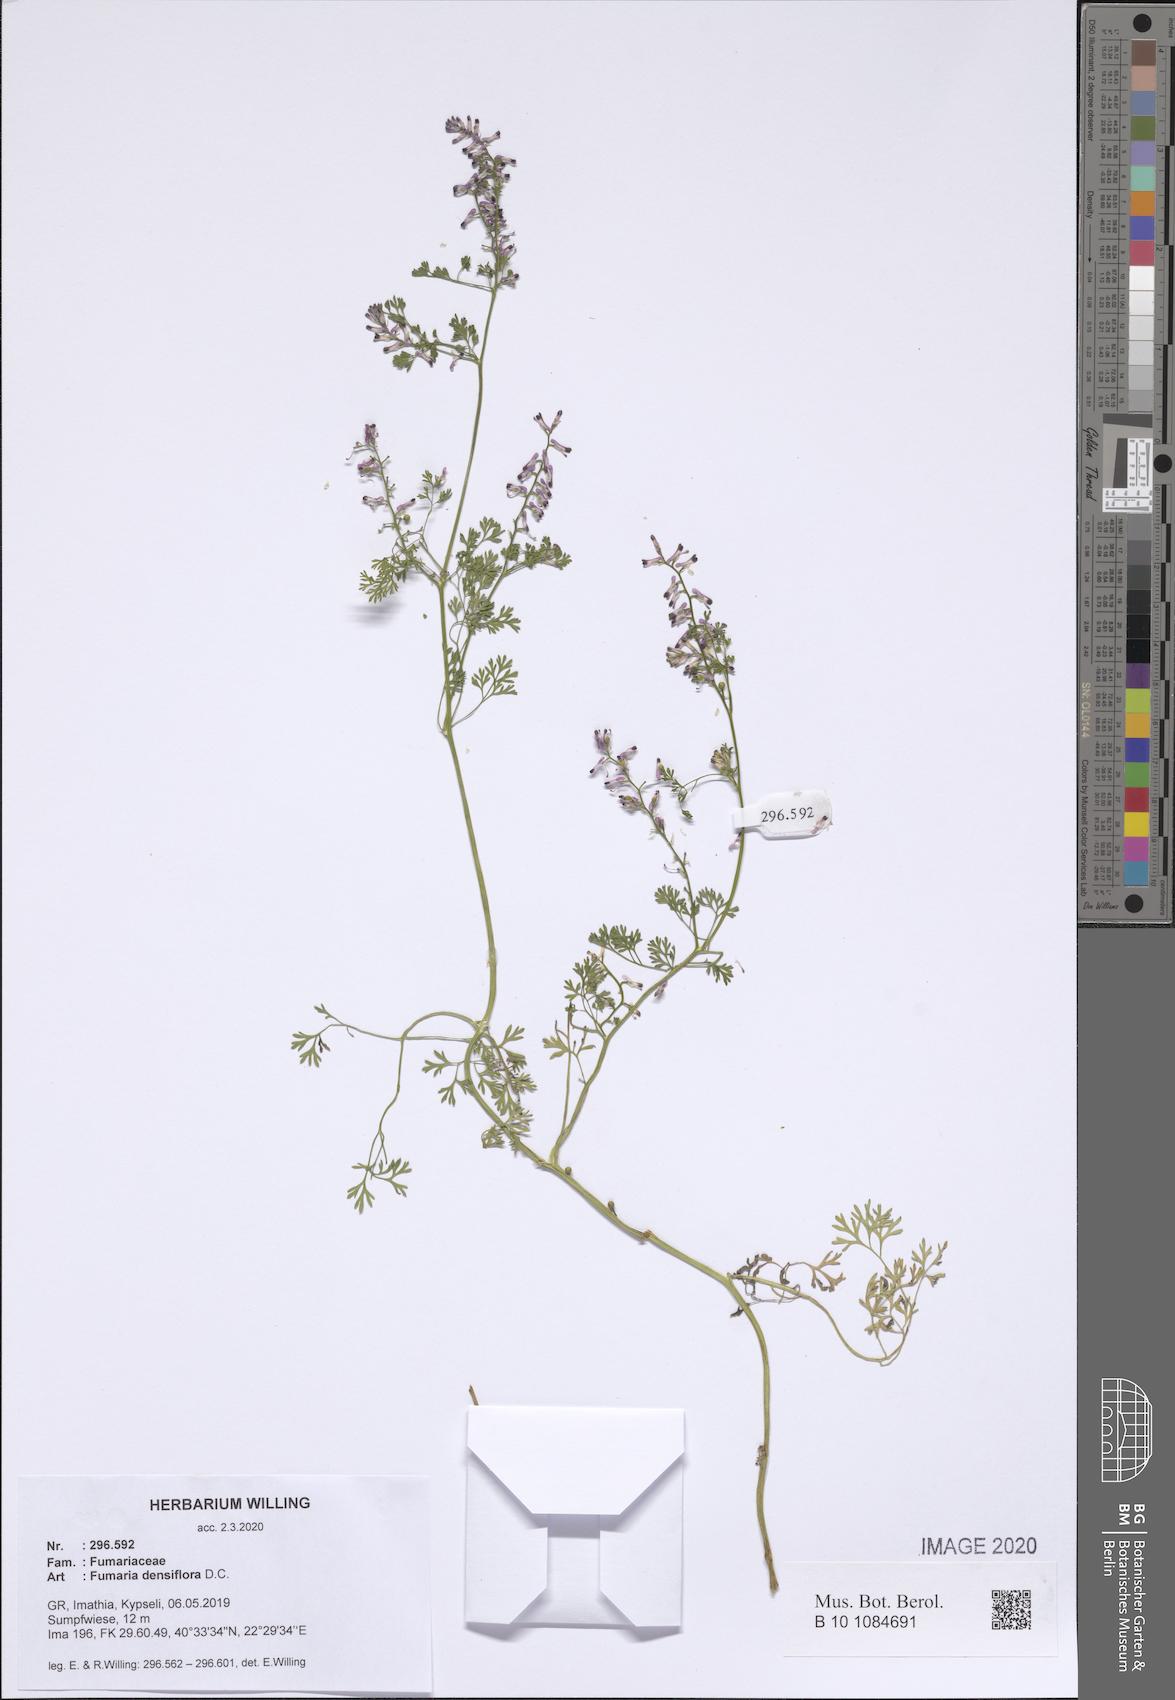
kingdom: Plantae
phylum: Tracheophyta
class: Magnoliopsida
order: Ranunculales
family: Papaveraceae
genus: Fumaria
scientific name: Fumaria densiflora
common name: Dense-flowered fumitory
